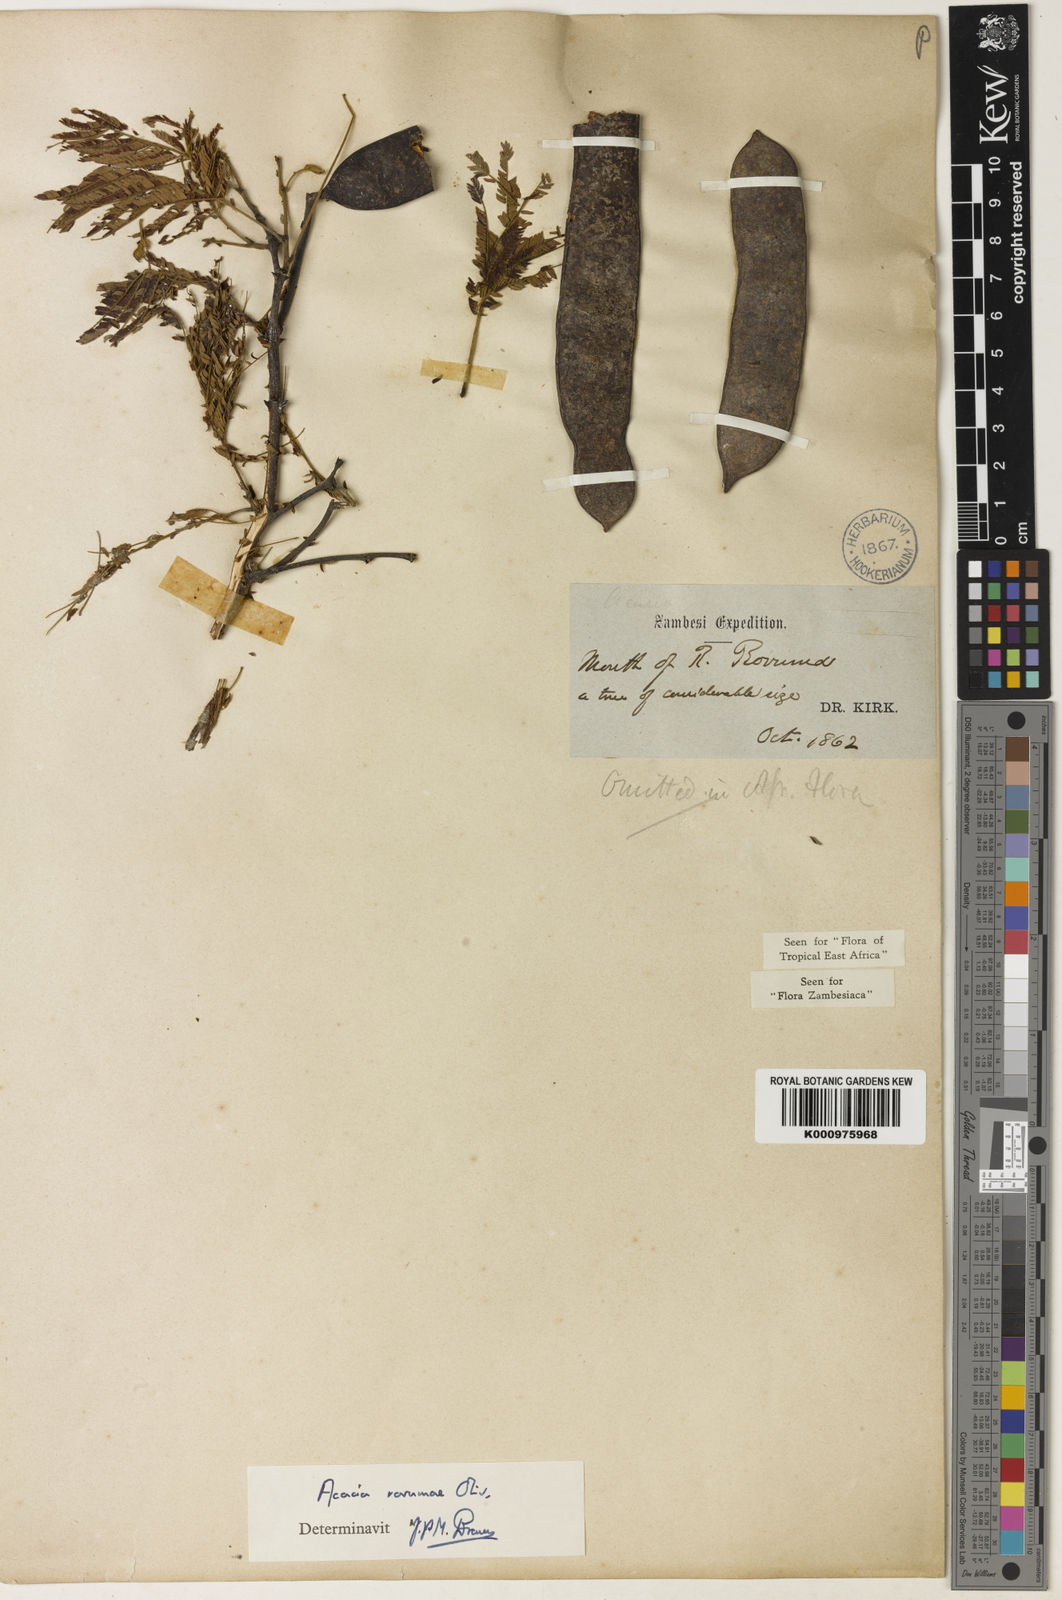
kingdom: Plantae
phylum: Tracheophyta
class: Magnoliopsida
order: Fabales
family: Fabaceae
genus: Senegalia
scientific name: Senegalia rovumae
